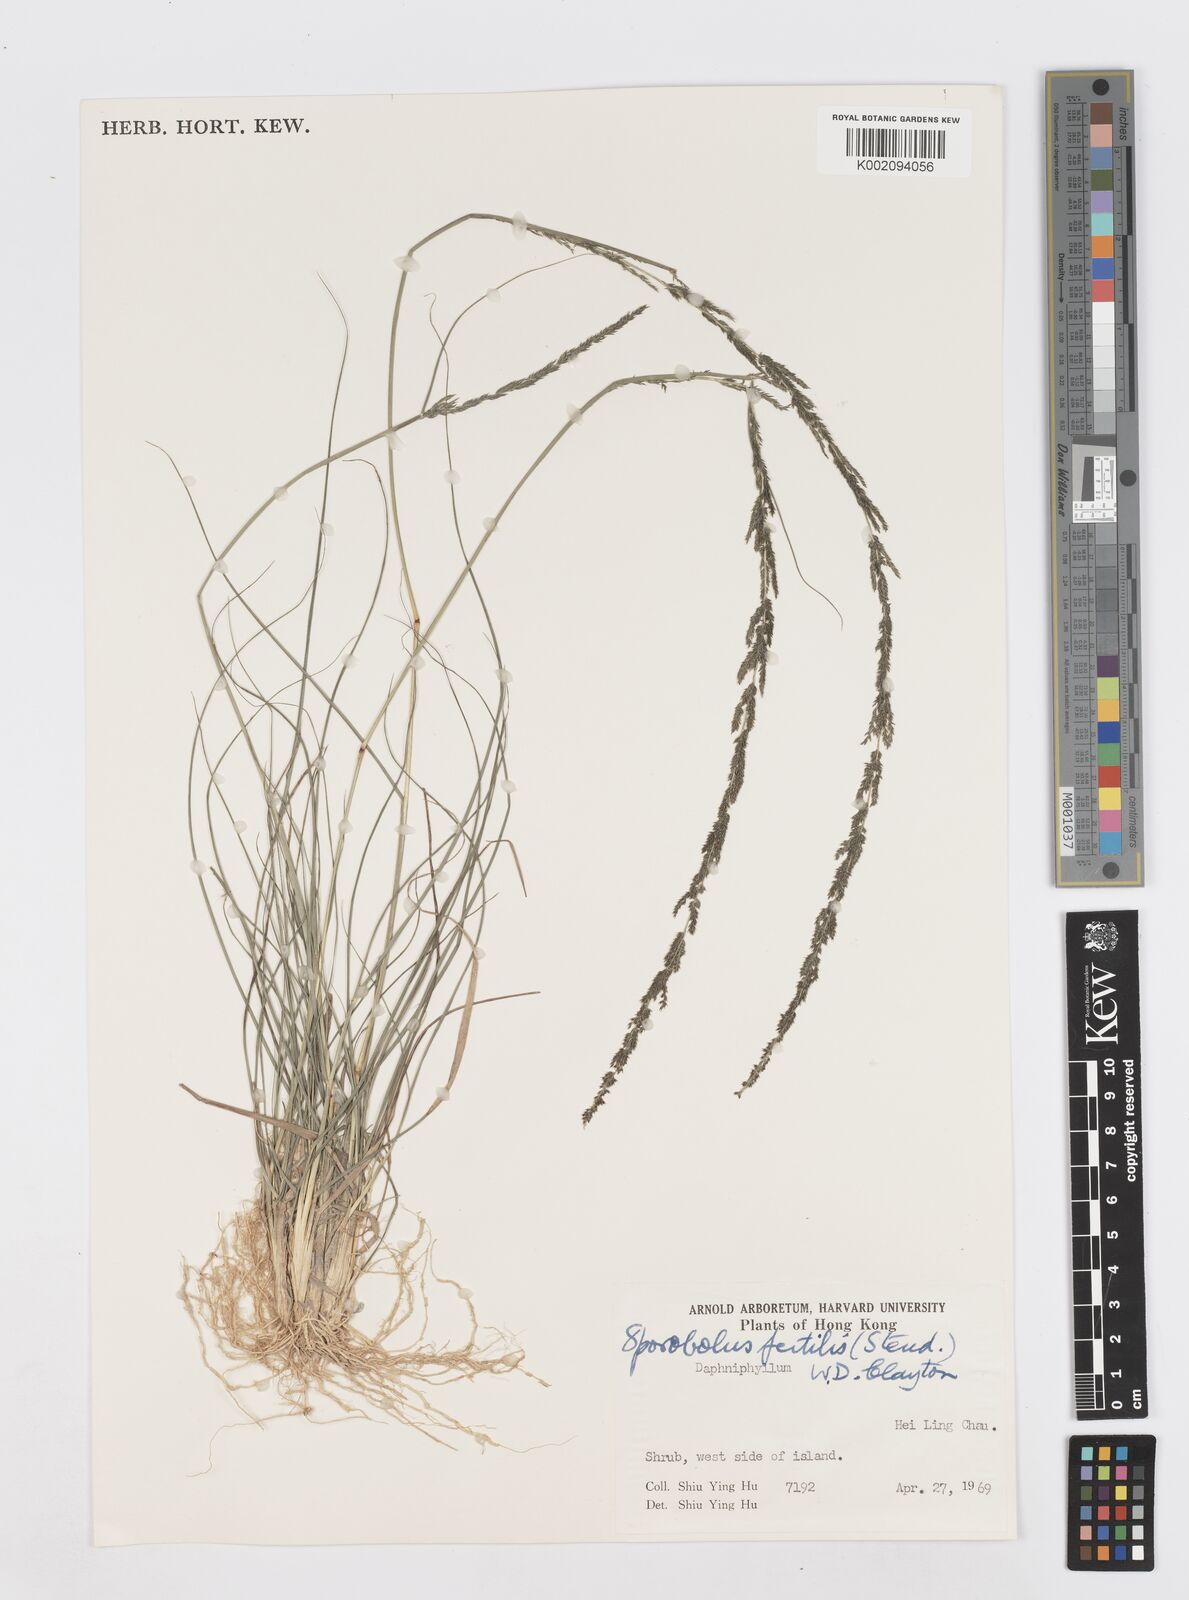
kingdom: Plantae
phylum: Tracheophyta
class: Liliopsida
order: Poales
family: Poaceae
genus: Sporobolus
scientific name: Sporobolus fertilis
